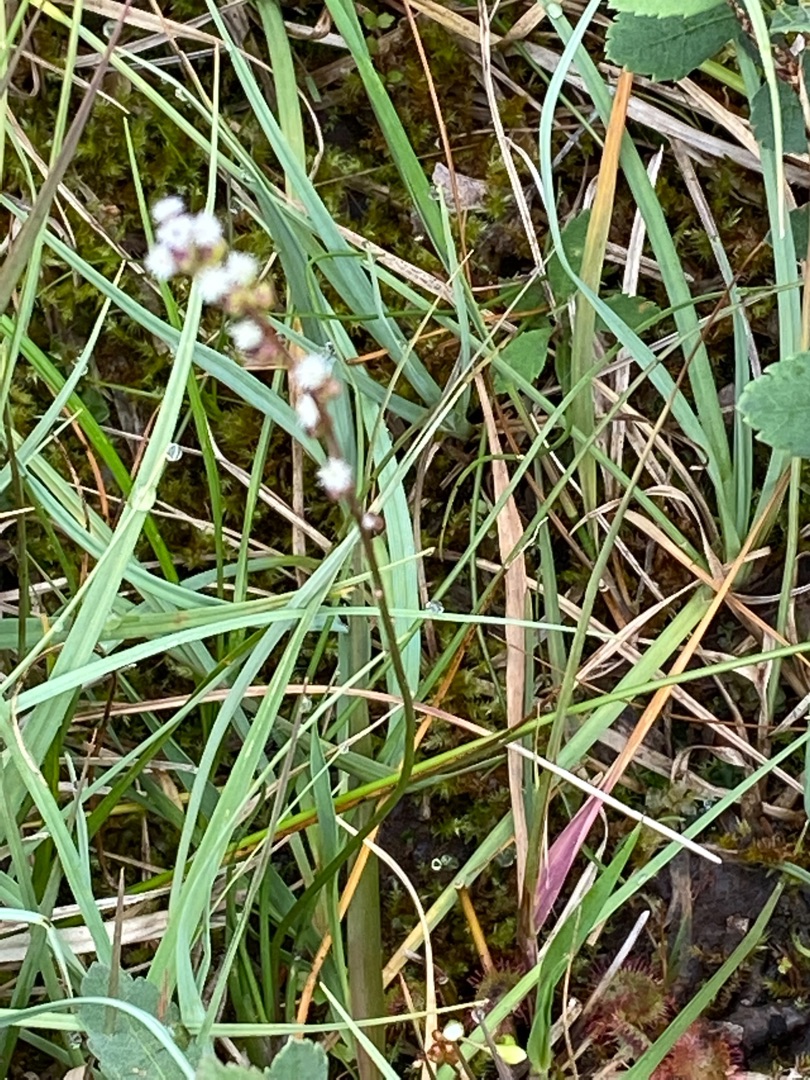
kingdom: Plantae
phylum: Tracheophyta
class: Liliopsida
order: Alismatales
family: Juncaginaceae
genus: Triglochin
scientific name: Triglochin palustris
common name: Kær-trehage
